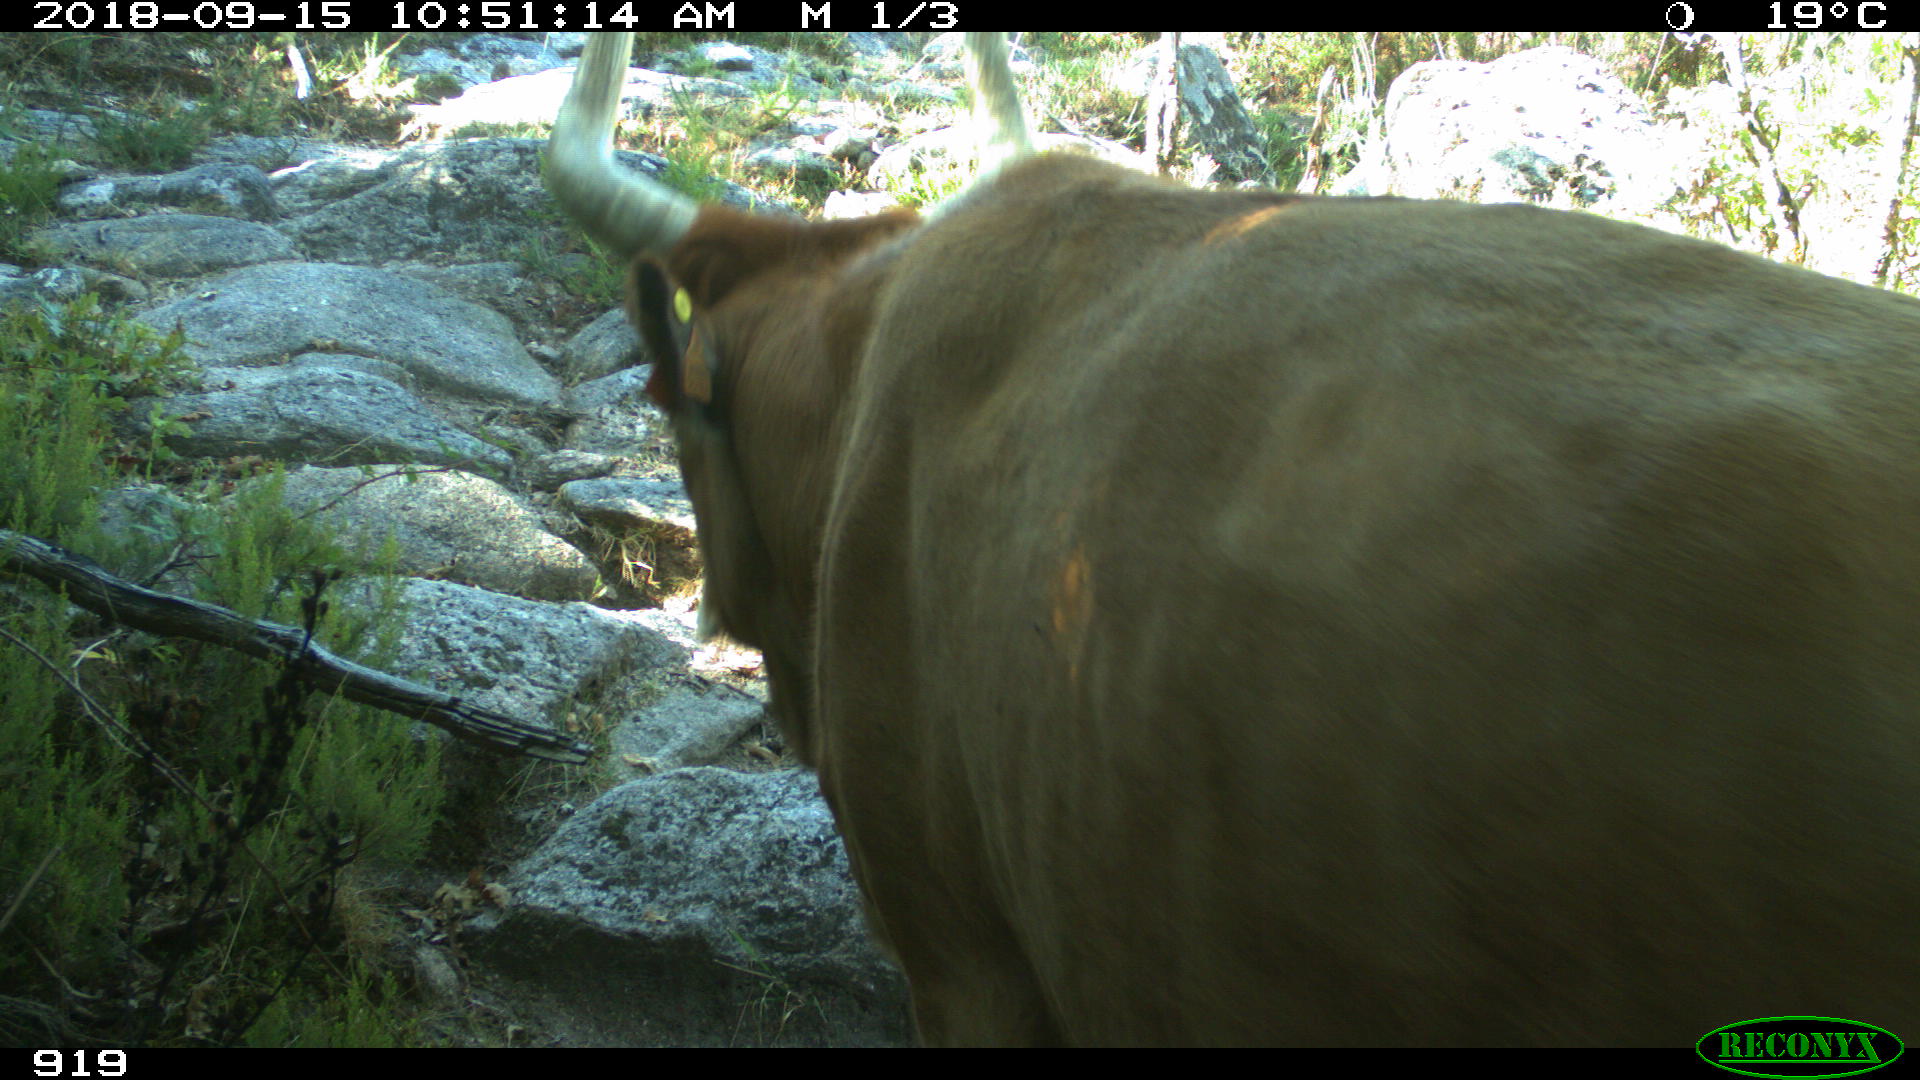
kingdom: Animalia
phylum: Chordata
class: Mammalia
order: Artiodactyla
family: Bovidae
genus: Bos
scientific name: Bos taurus
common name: Domesticated cattle
